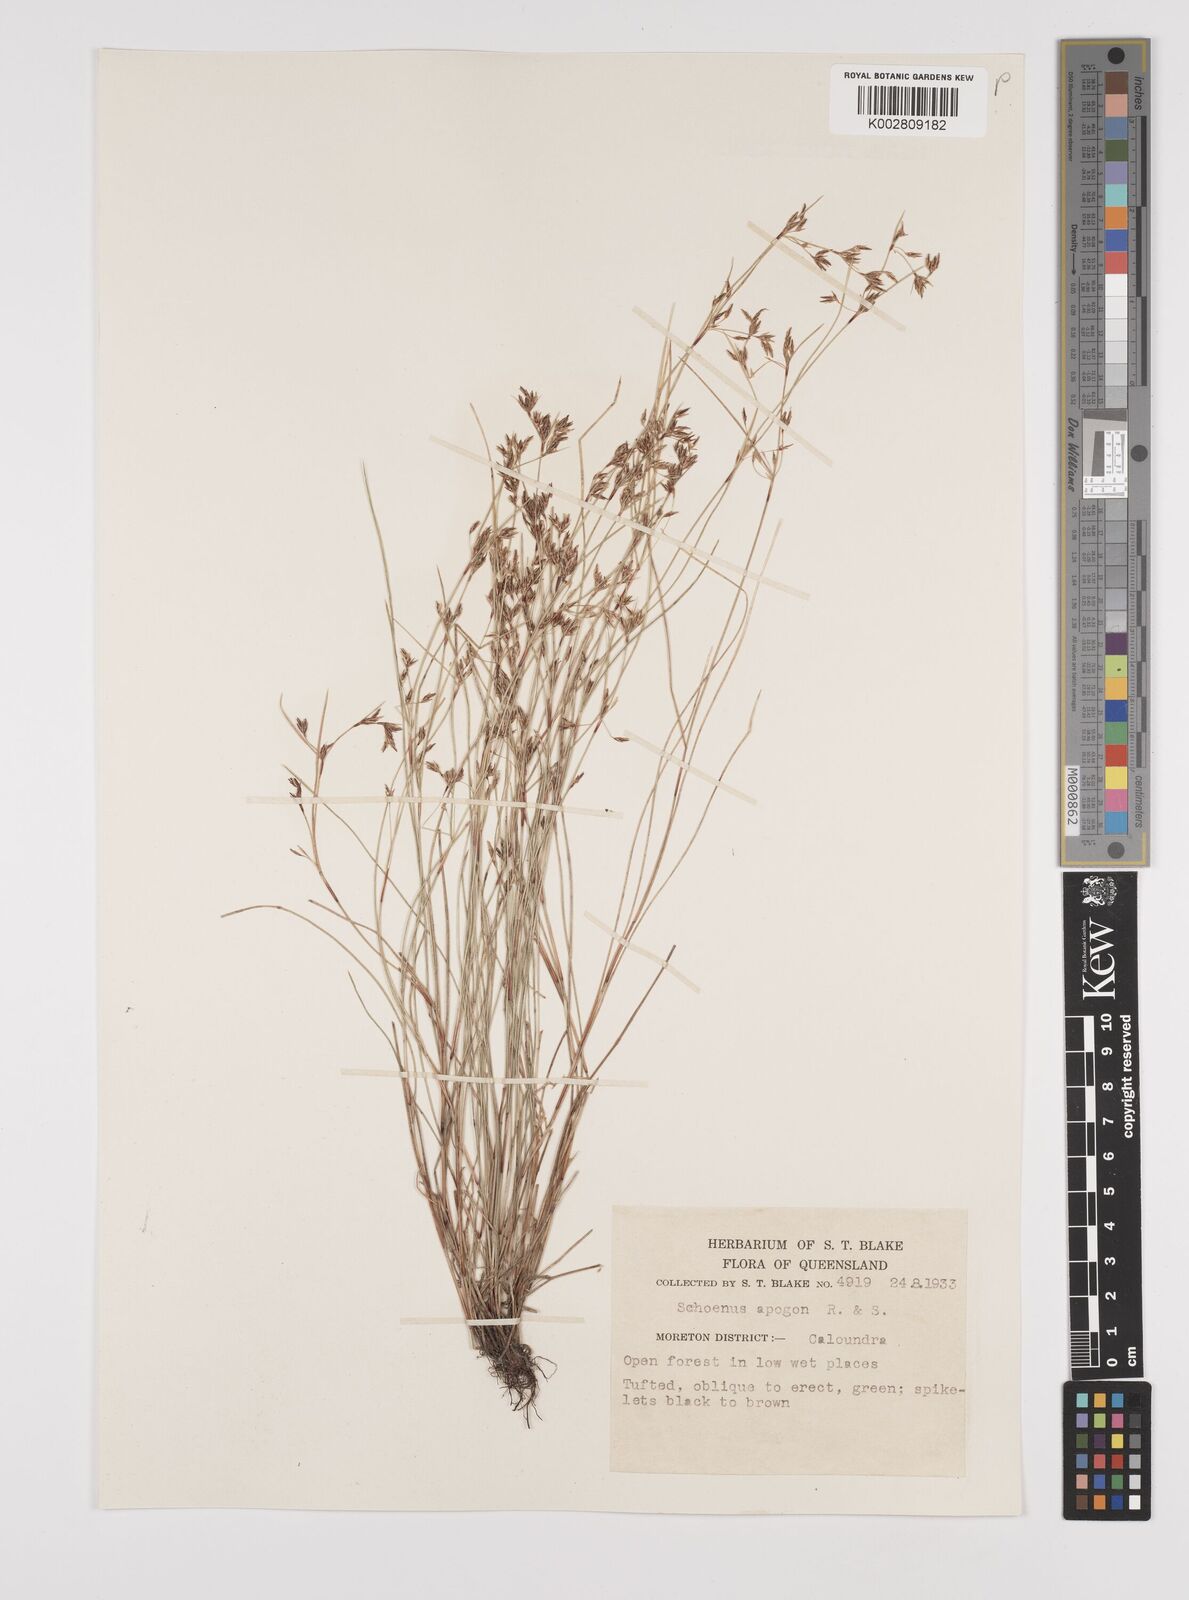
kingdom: Plantae
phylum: Tracheophyta
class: Liliopsida
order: Poales
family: Cyperaceae
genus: Schoenus
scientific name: Schoenus apogon
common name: Smooth bogrush
